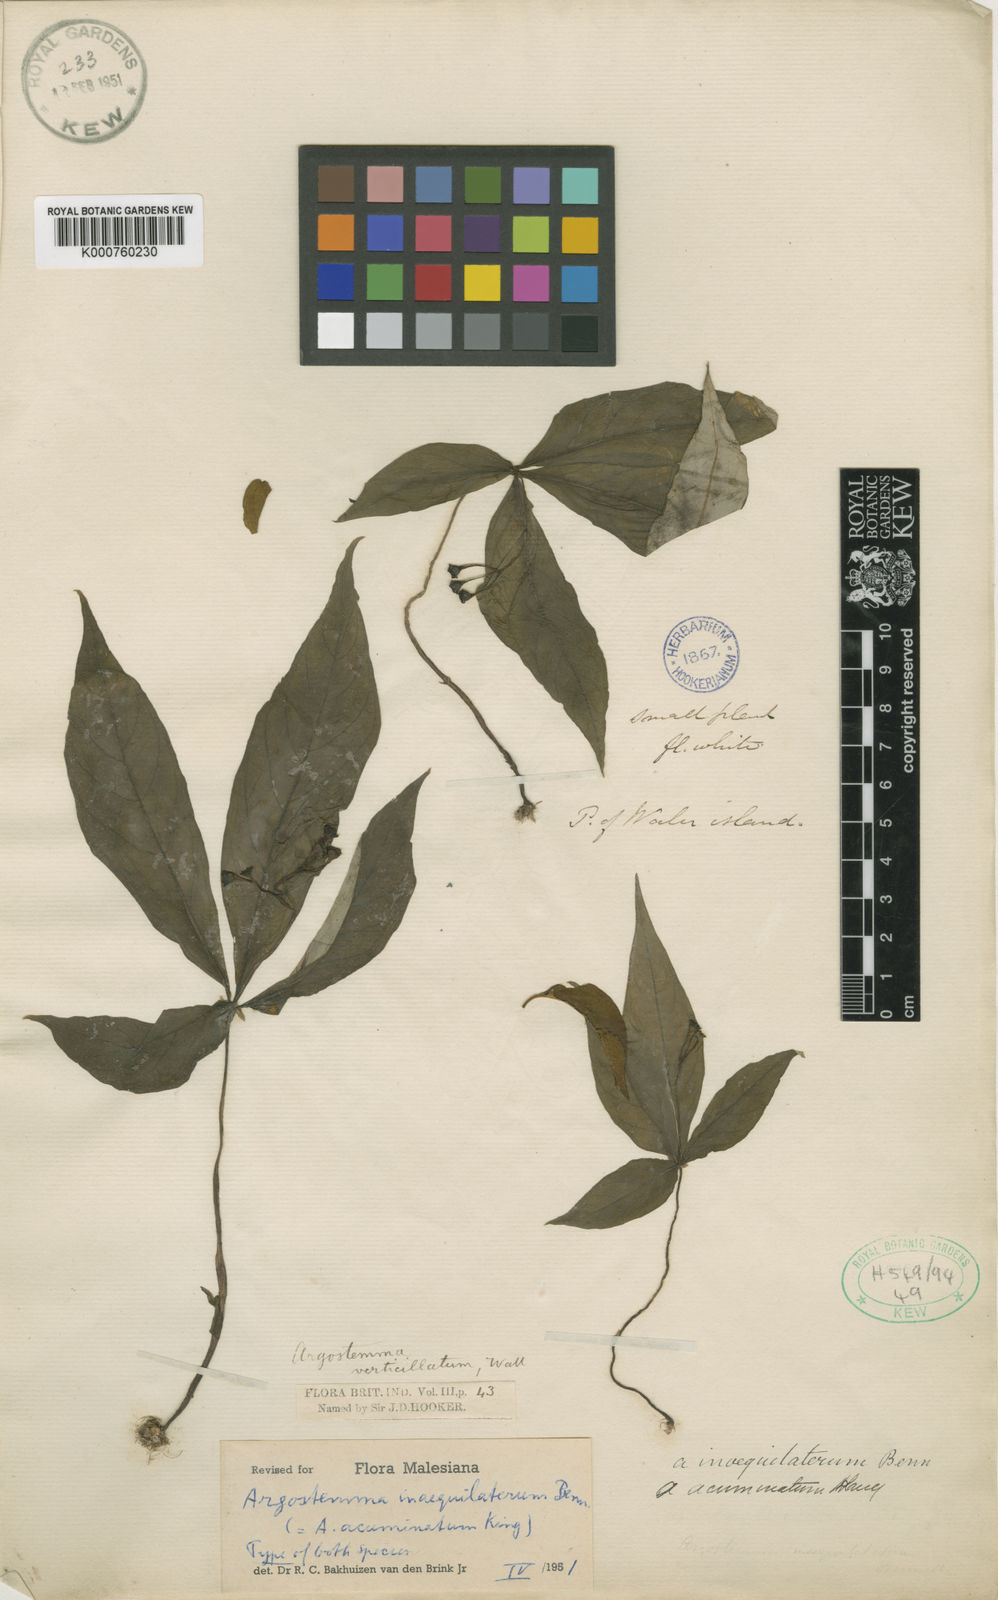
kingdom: Plantae
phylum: Tracheophyta
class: Magnoliopsida
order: Gentianales
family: Rubiaceae
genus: Argostemma
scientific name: Argostemma inaequilaterum
